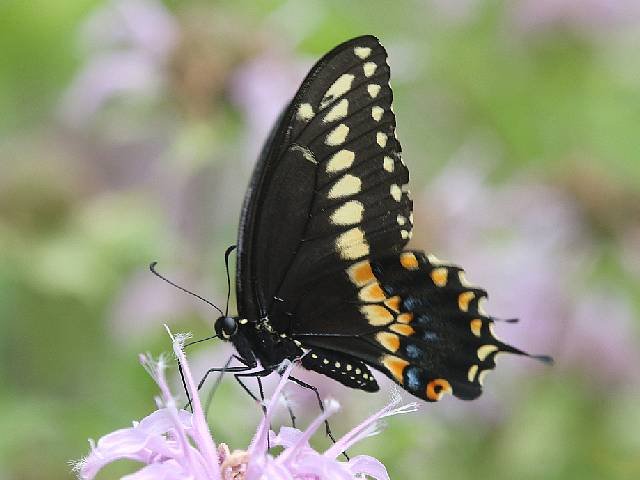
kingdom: Animalia
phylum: Arthropoda
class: Insecta
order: Lepidoptera
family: Papilionidae
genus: Papilio
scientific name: Papilio polyxenes
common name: Black Swallowtail
